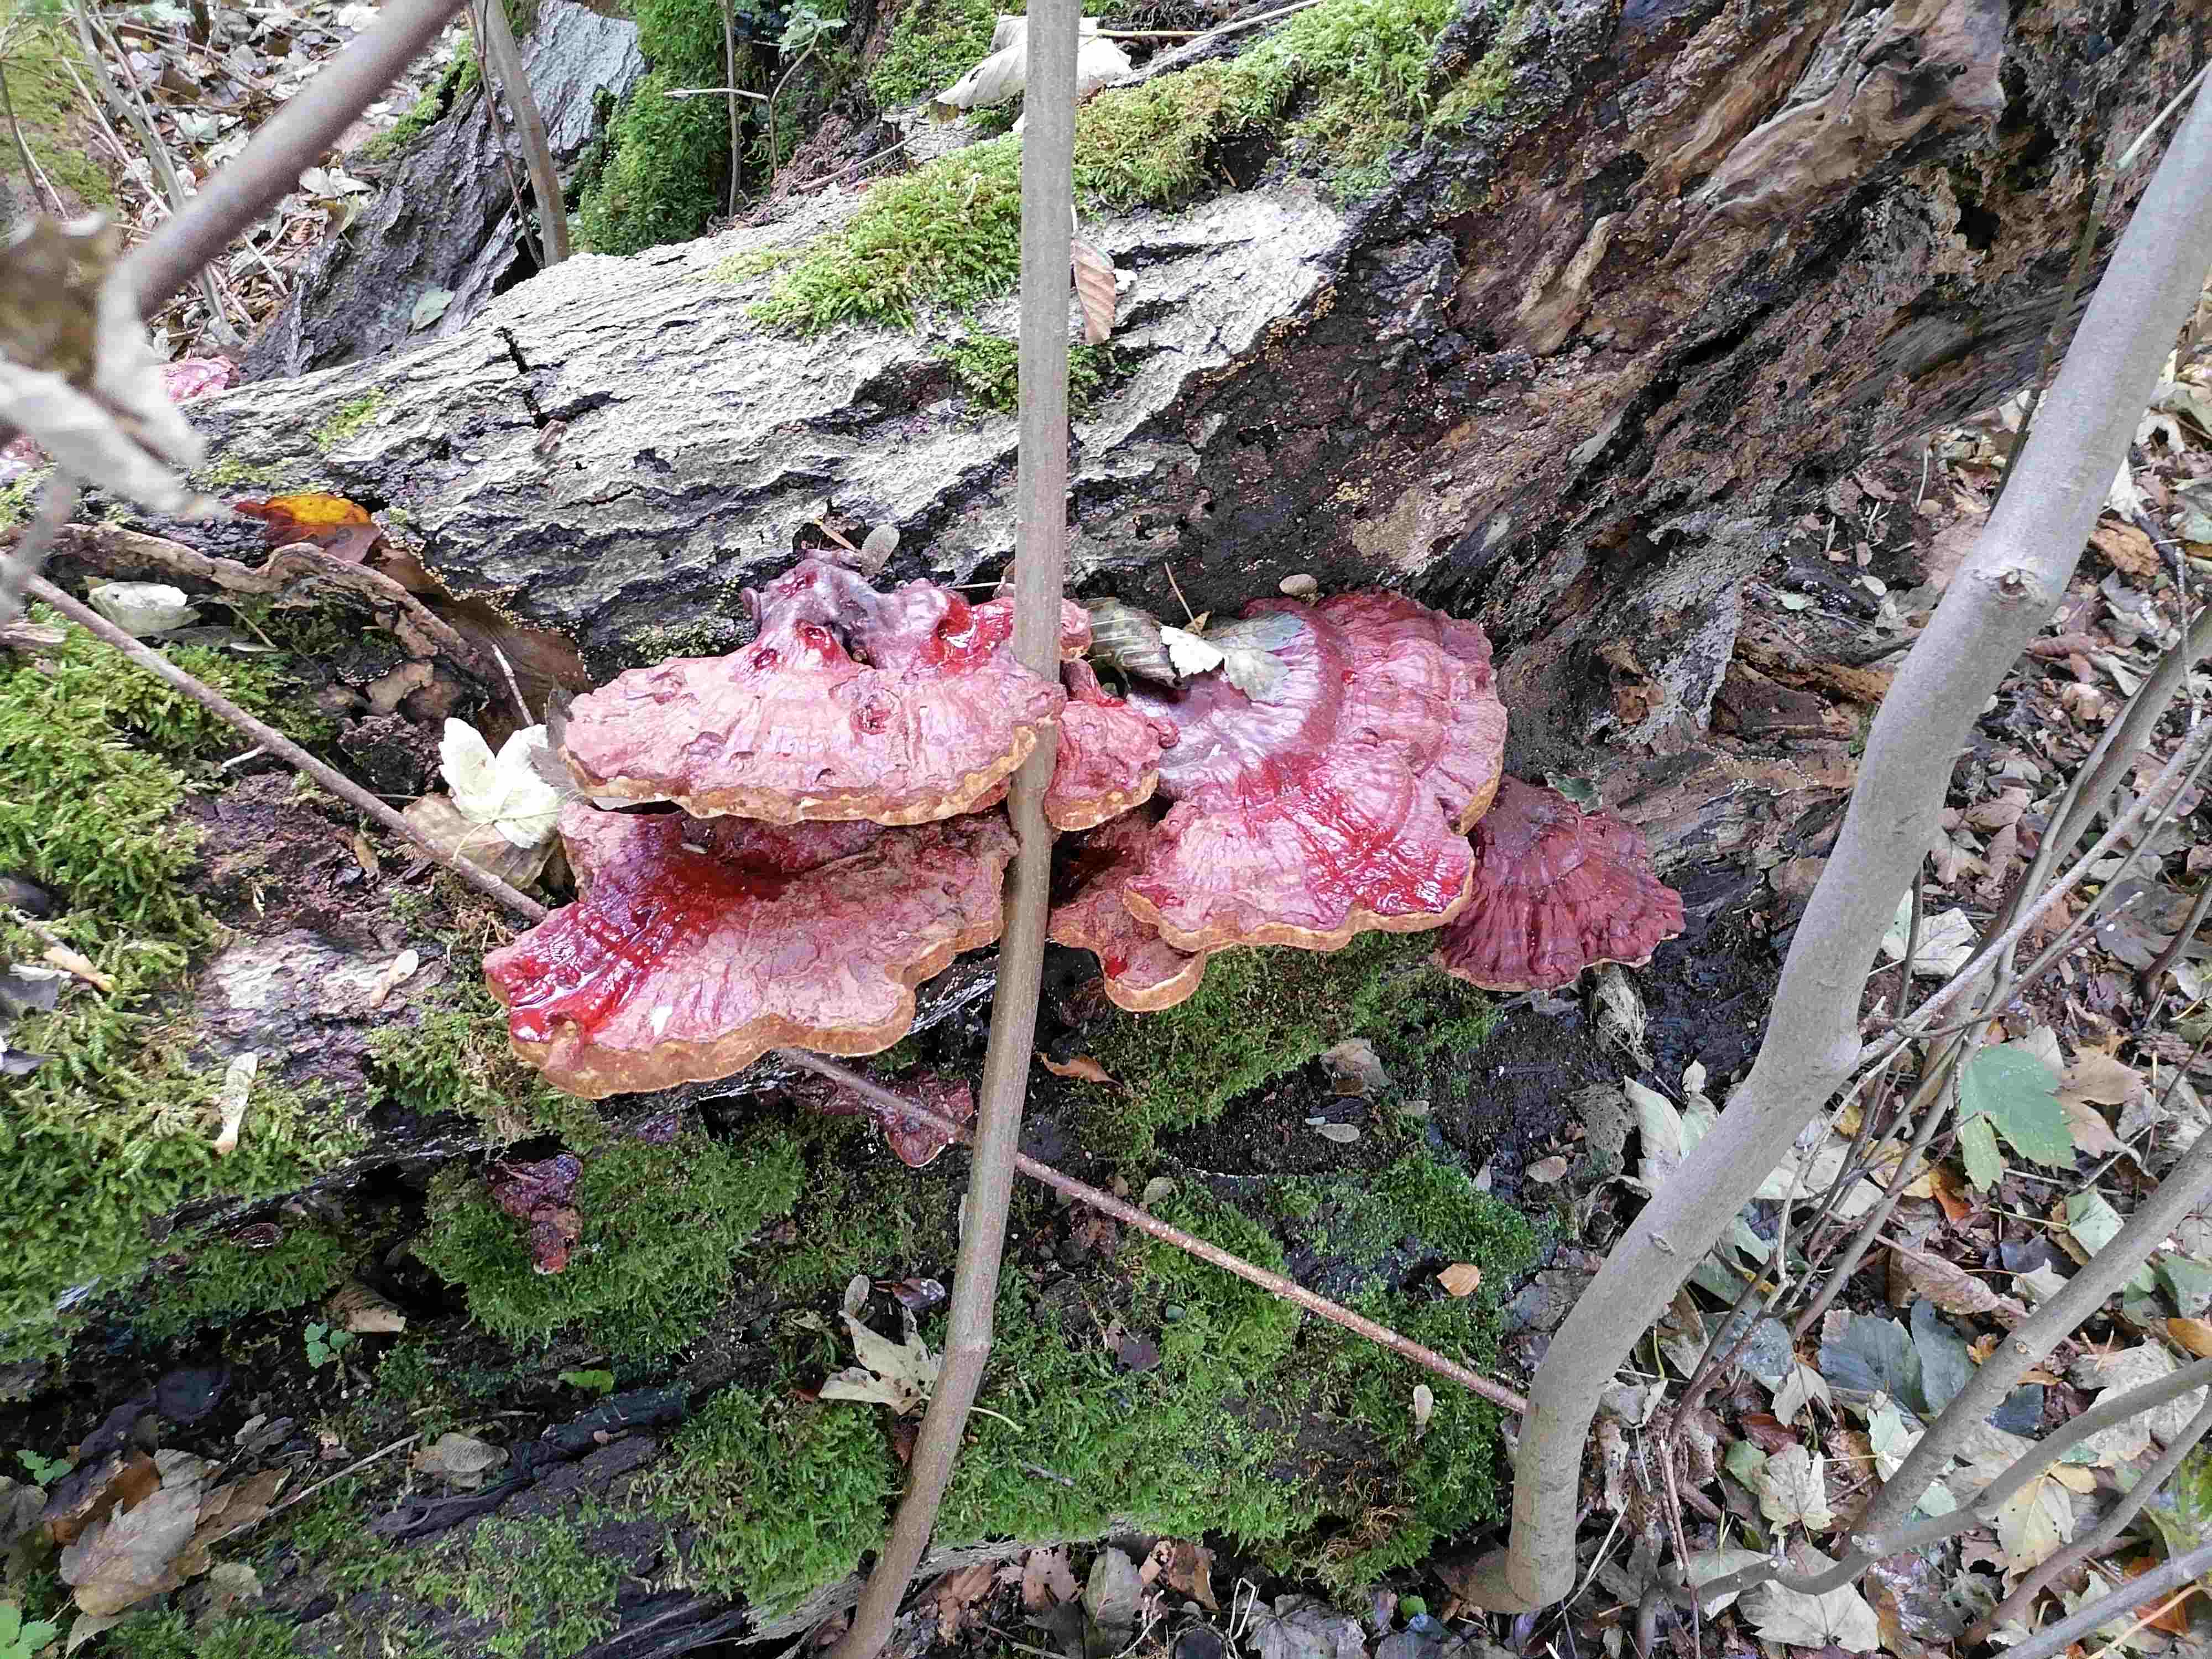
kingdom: Fungi
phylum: Basidiomycota
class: Agaricomycetes
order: Polyporales
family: Polyporaceae
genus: Ganoderma
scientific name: Ganoderma lucidum
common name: skinnende lakporesvamp
